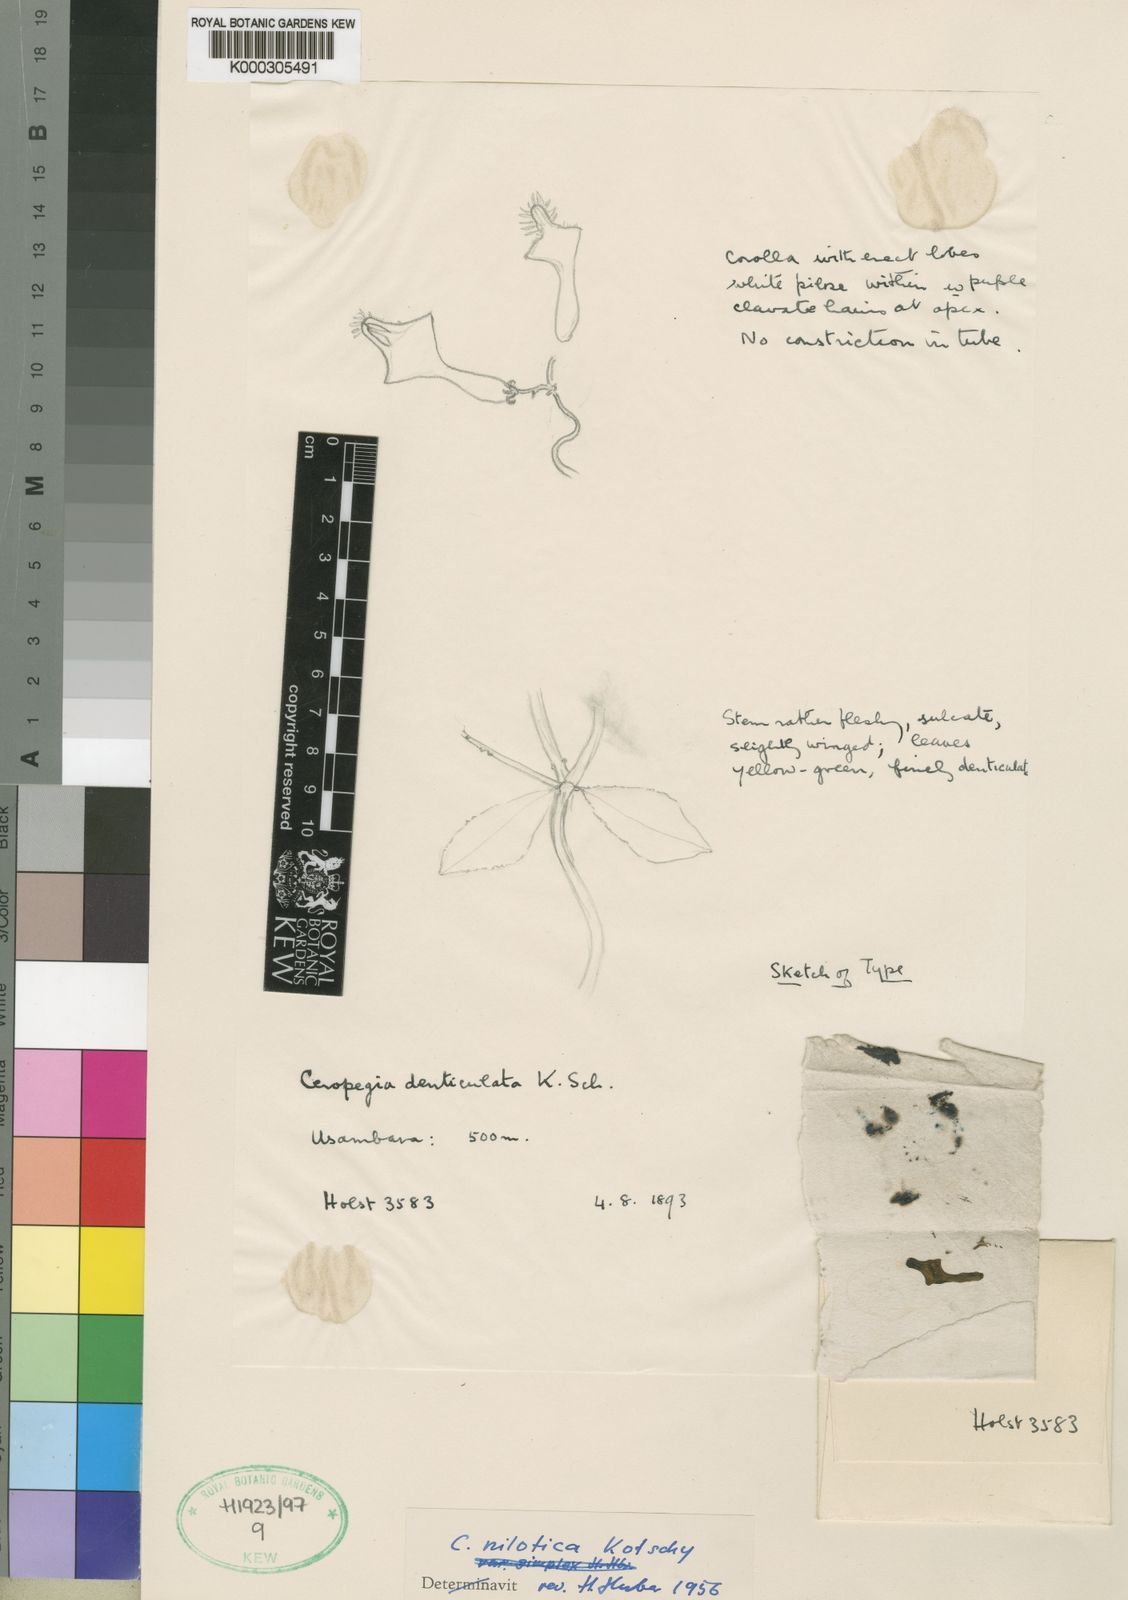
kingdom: Plantae
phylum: Tracheophyta
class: Magnoliopsida
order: Gentianales
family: Apocynaceae
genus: Ceropegia
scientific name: Ceropegia denticulata
